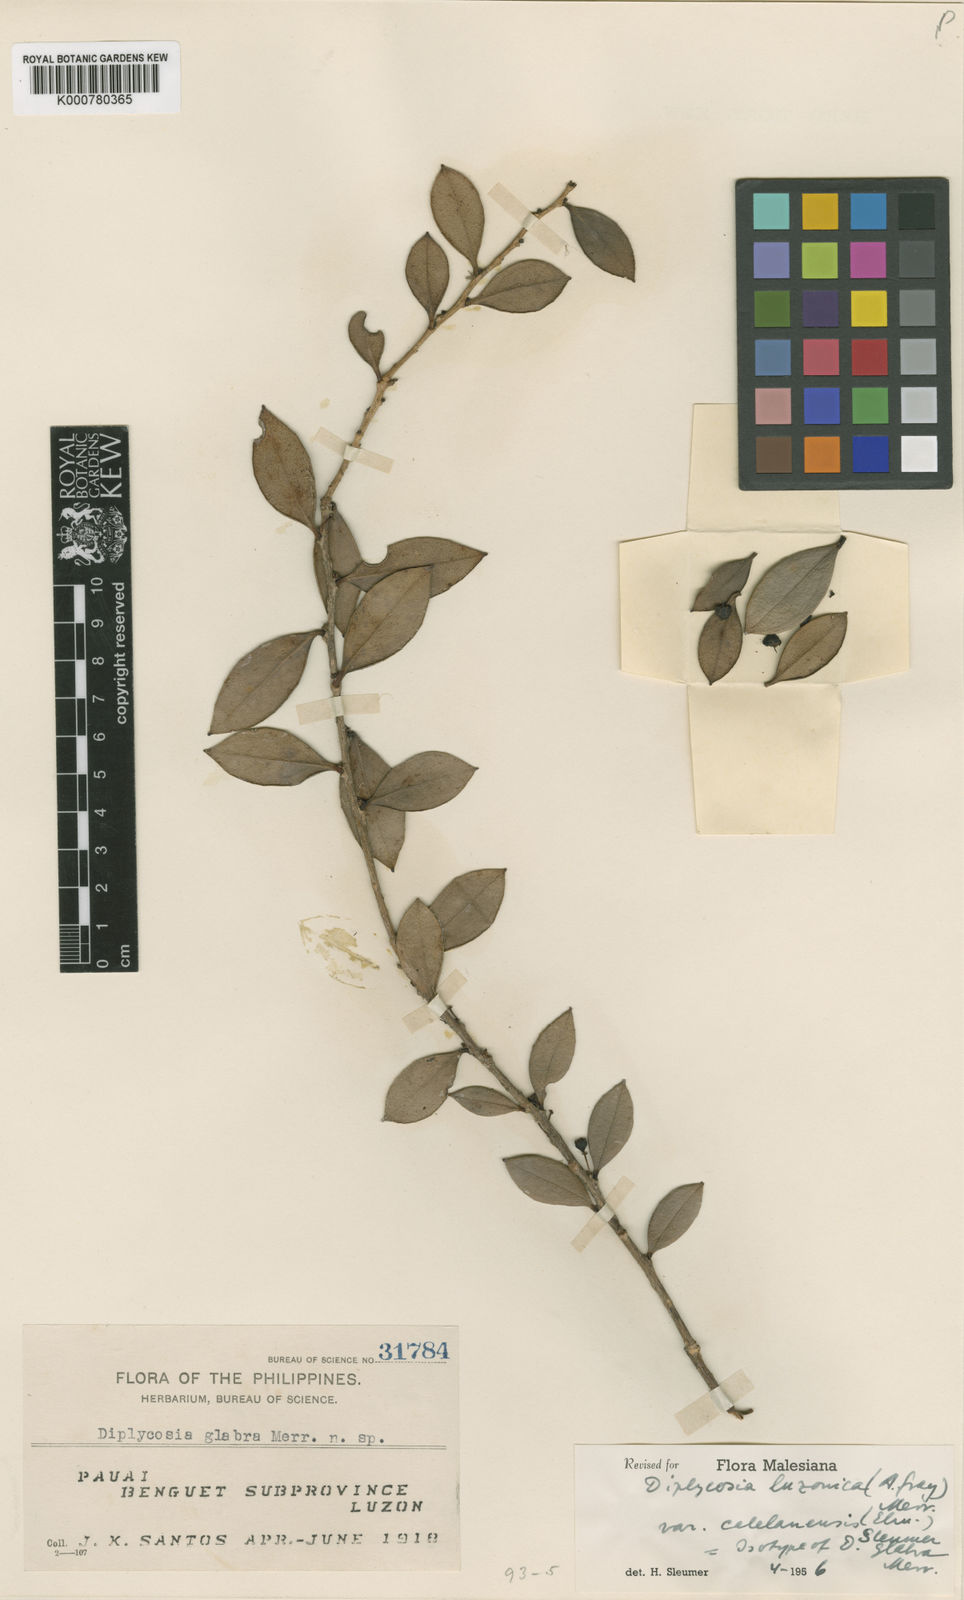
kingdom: Plantae
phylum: Tracheophyta
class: Magnoliopsida
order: Ericales
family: Ericaceae
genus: Gaultheria
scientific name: Gaultheria luzonica
